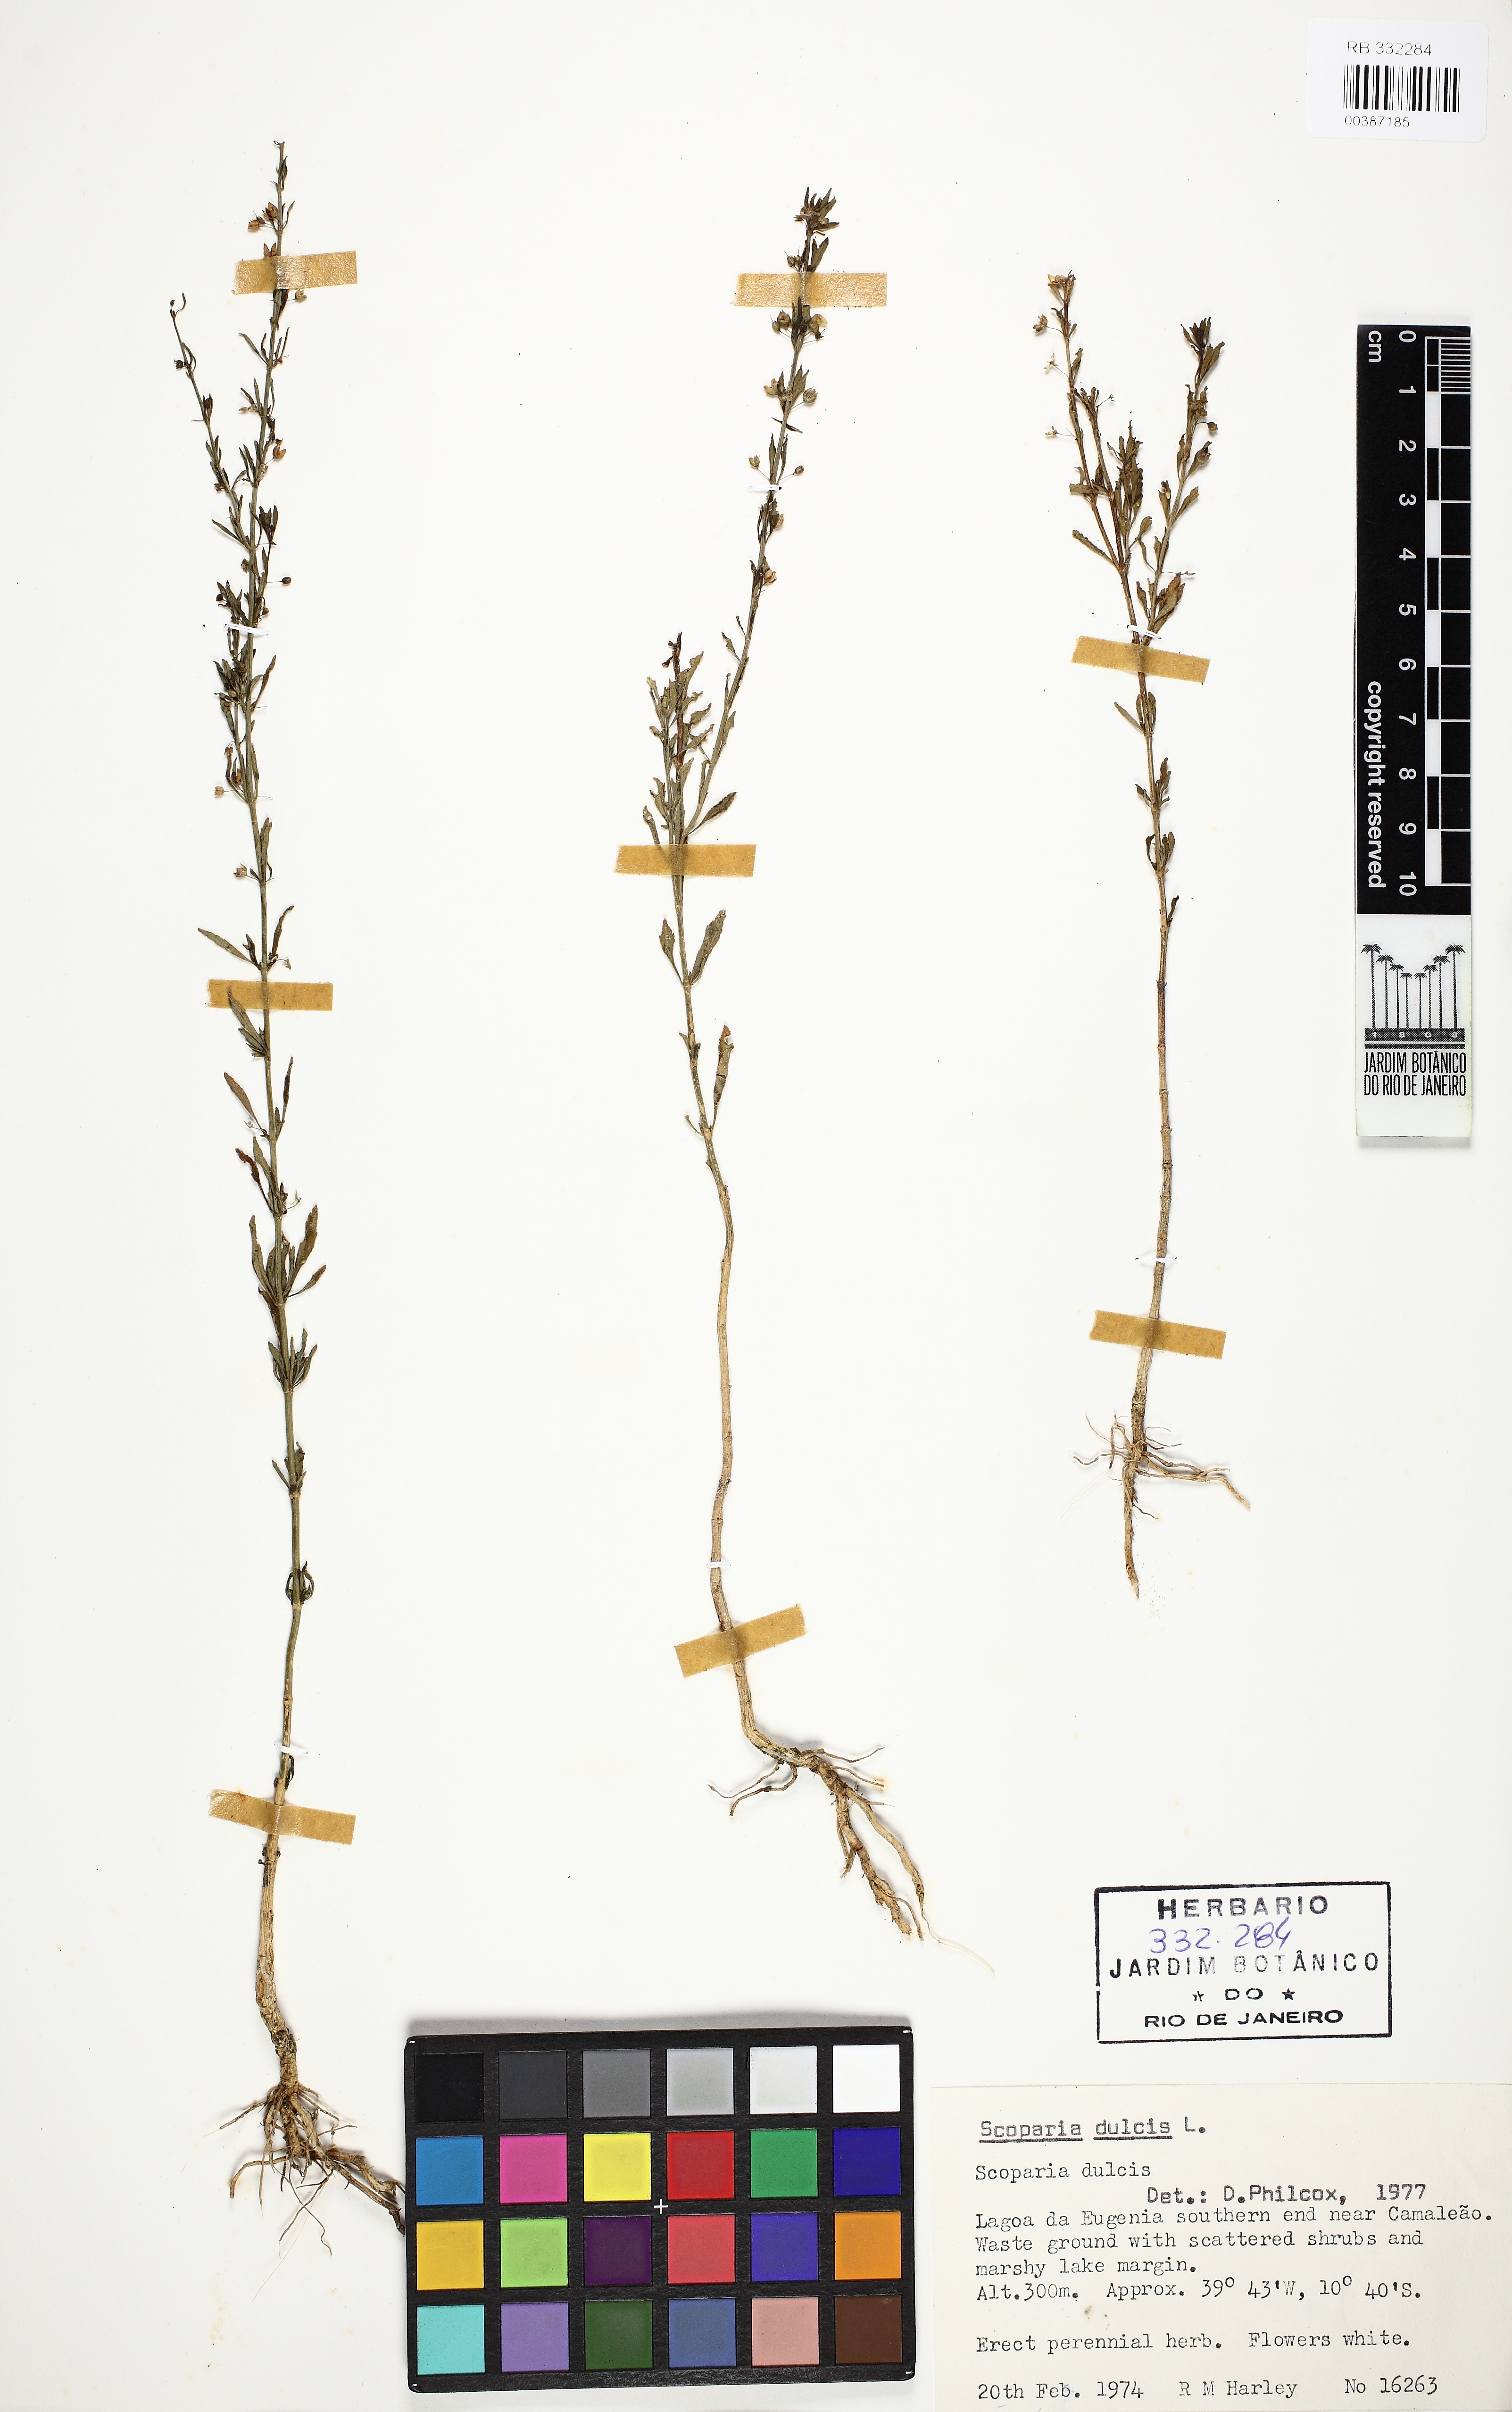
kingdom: Plantae
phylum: Tracheophyta
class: Magnoliopsida
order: Lamiales
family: Plantaginaceae
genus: Scoparia
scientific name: Scoparia dulcis
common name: Scoparia-weed
